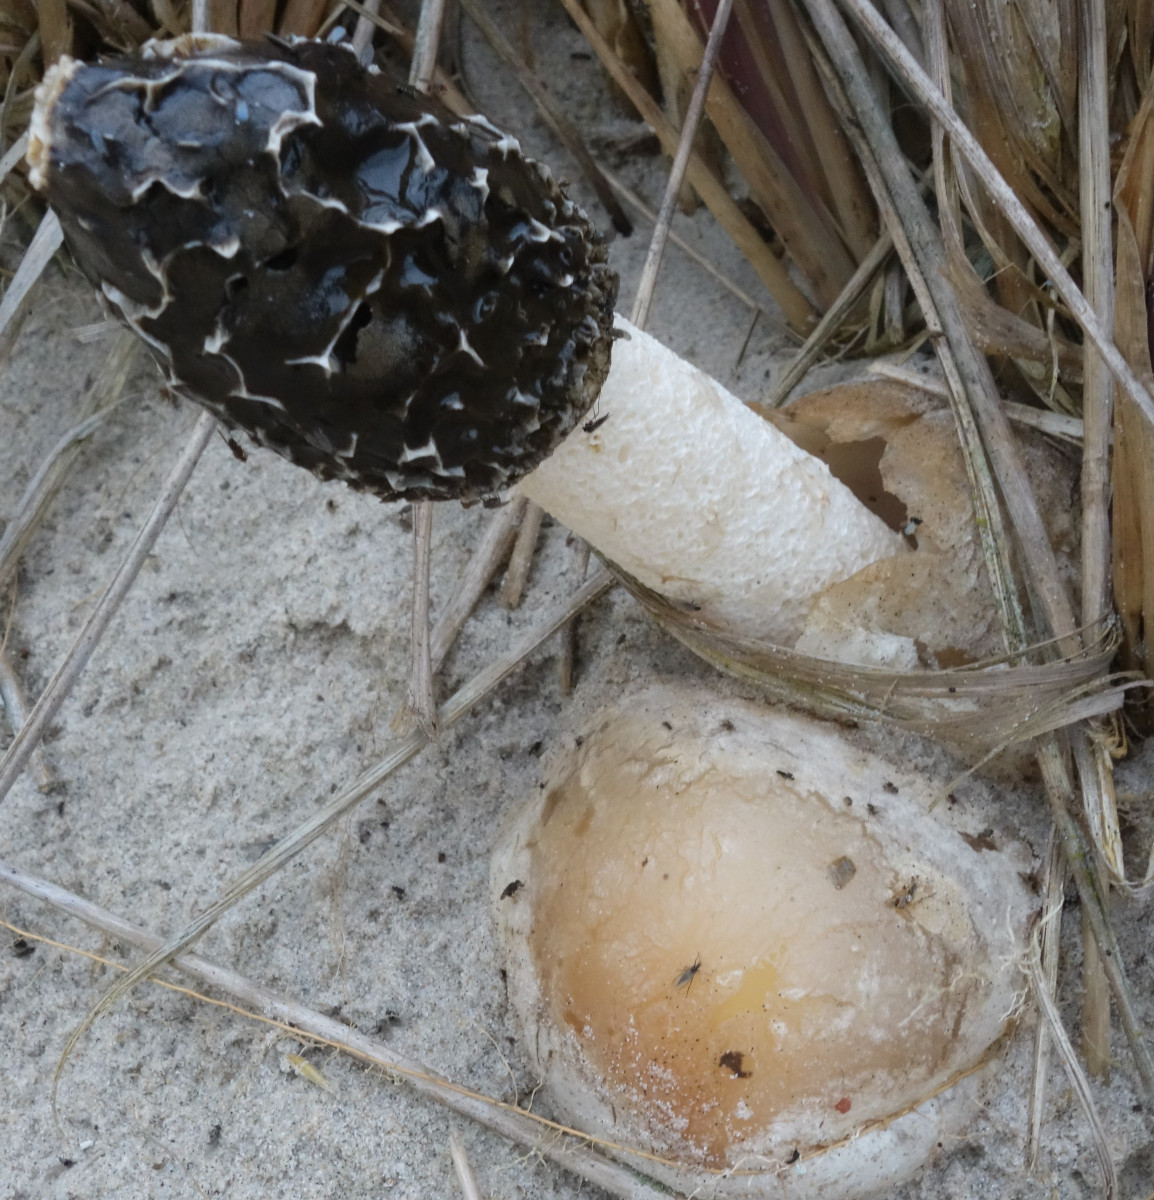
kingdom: Fungi
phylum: Basidiomycota
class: Agaricomycetes
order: Phallales
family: Phallaceae
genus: Phallus
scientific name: Phallus hadriani
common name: sand-stinksvamp
